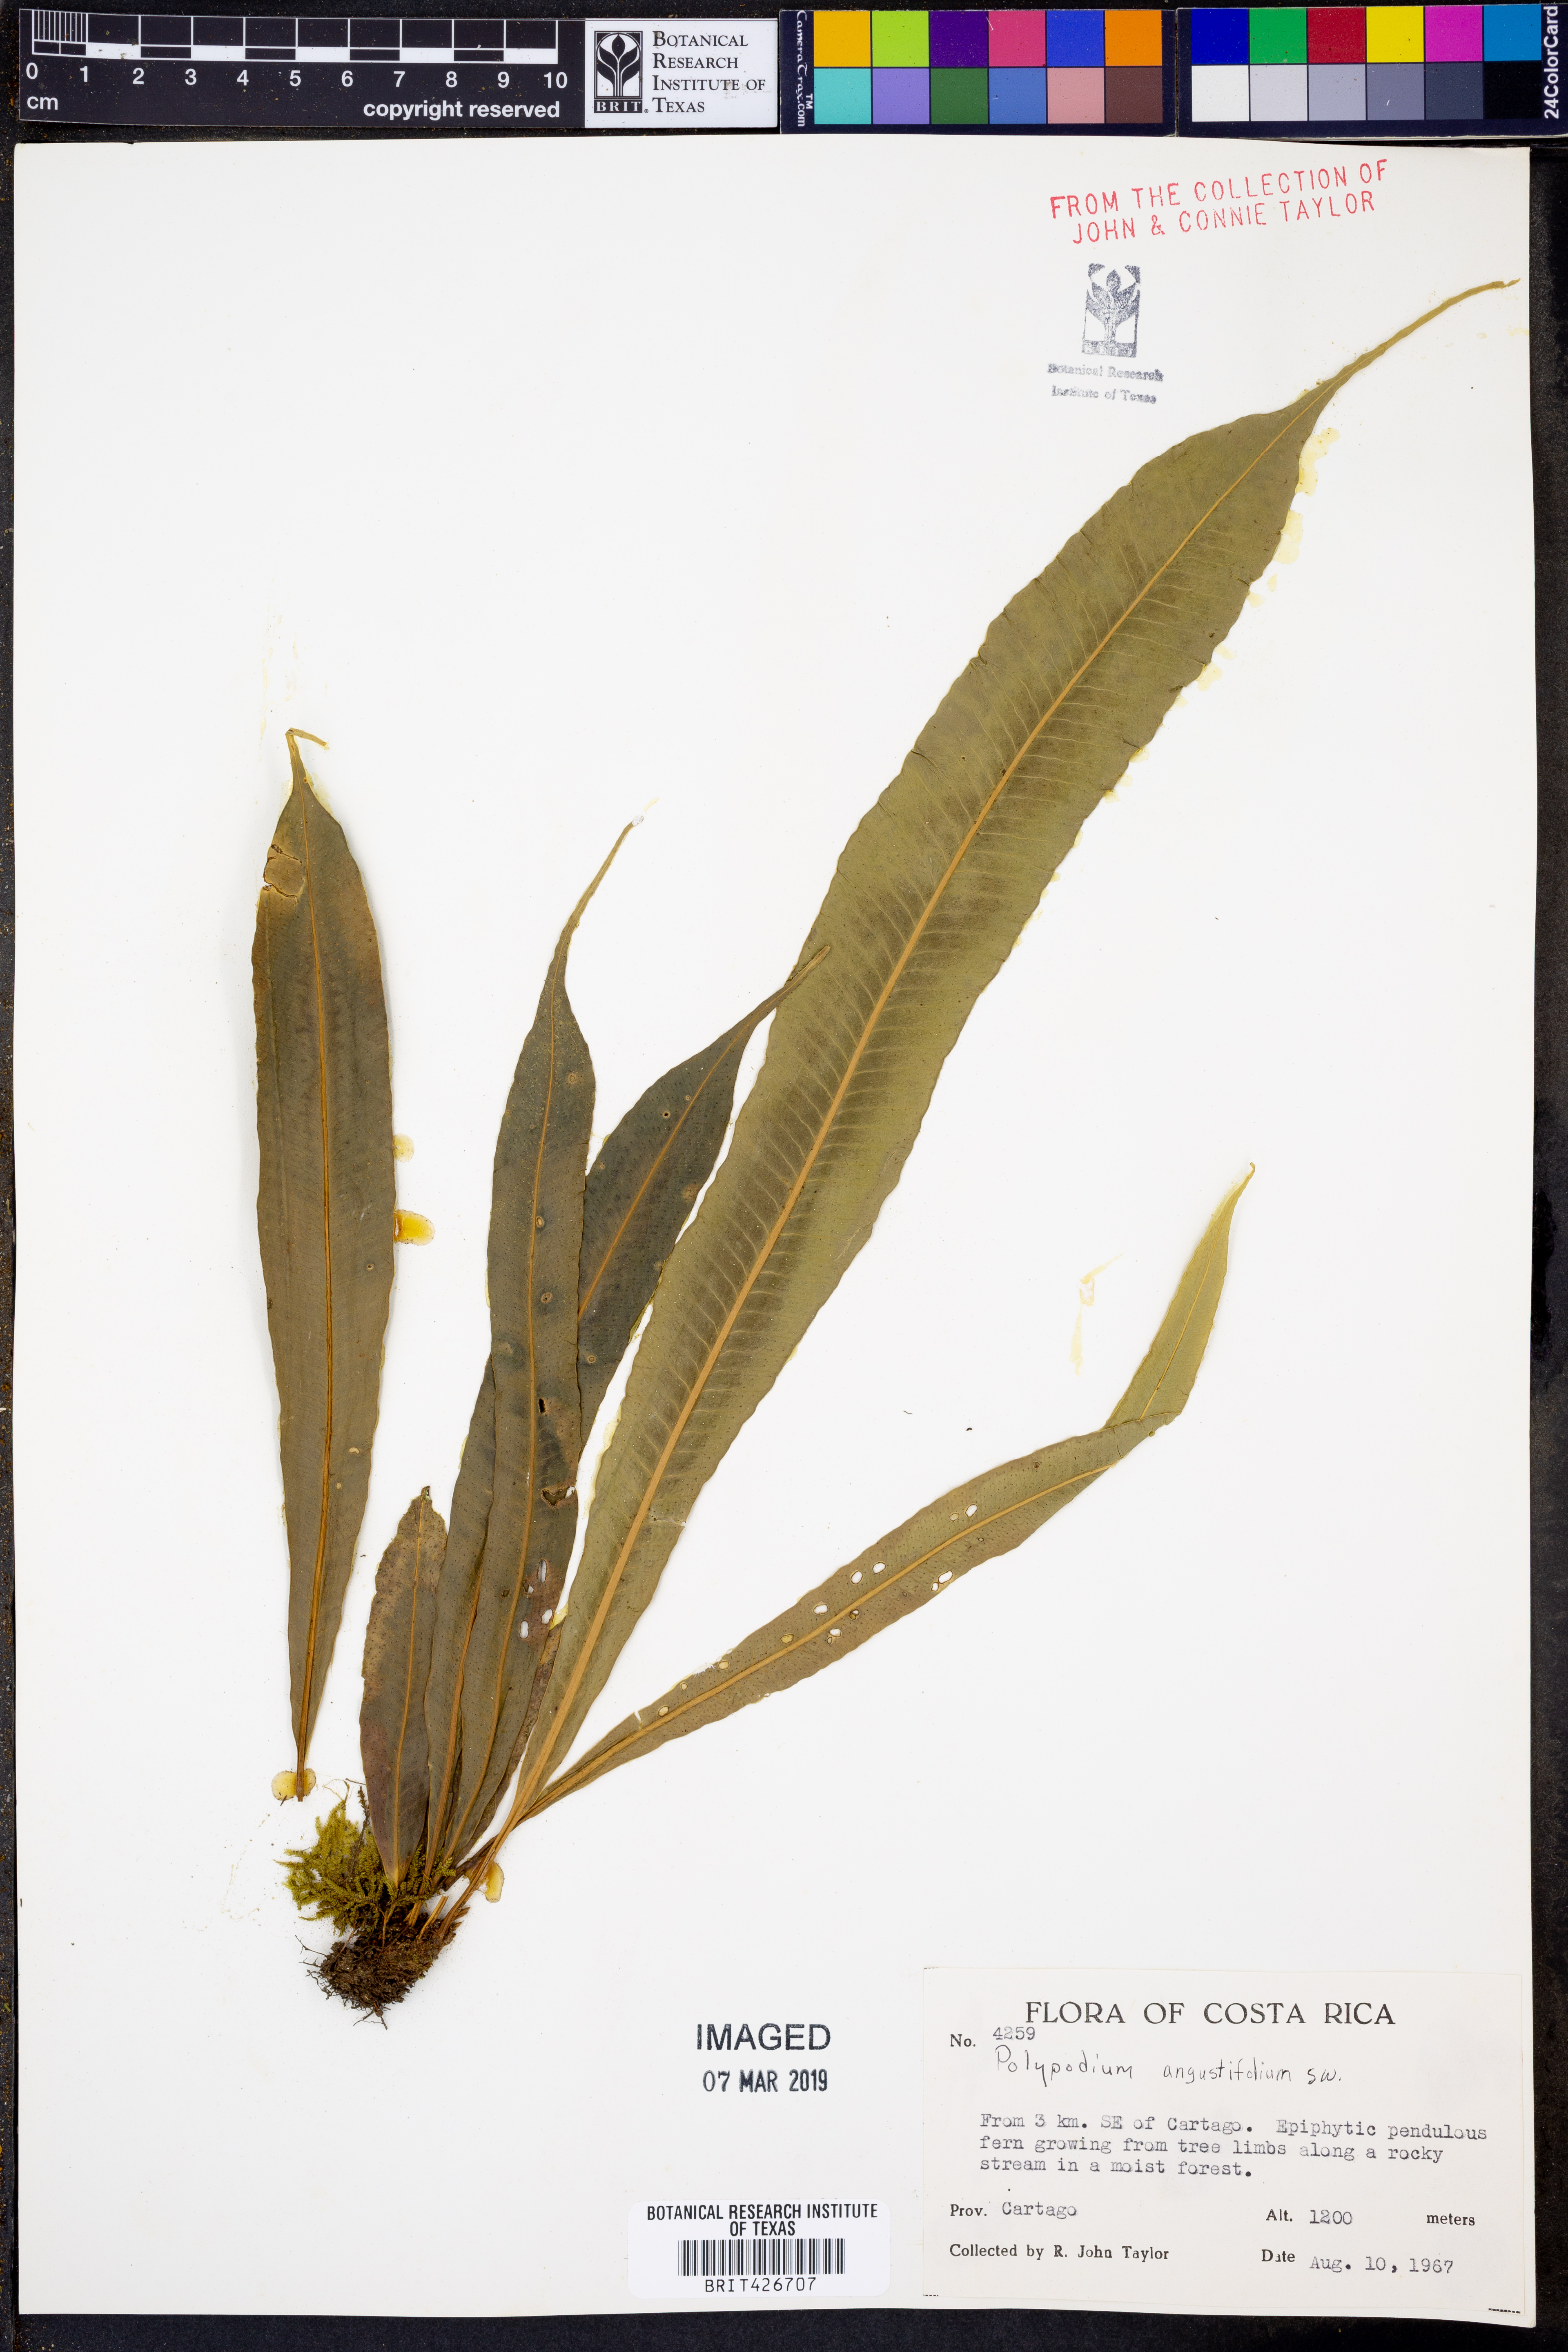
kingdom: Plantae
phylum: Tracheophyta
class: Polypodiopsida
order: Polypodiales
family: Polypodiaceae
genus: Campyloneurum
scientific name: Campyloneurum angustifolium
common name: Narrow-leaf strap fern
